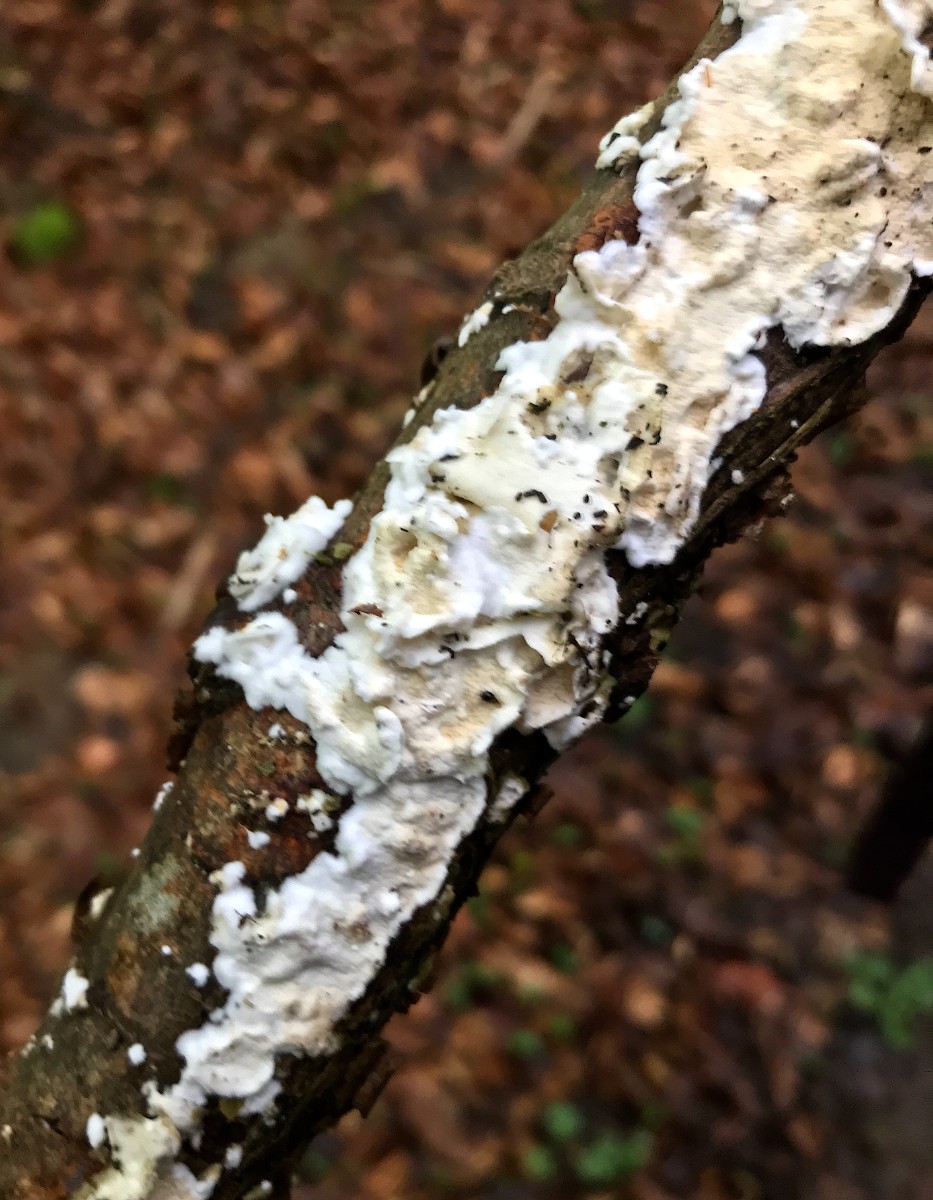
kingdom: Fungi
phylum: Basidiomycota
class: Agaricomycetes
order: Polyporales
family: Irpicaceae
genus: Byssomerulius
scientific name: Byssomerulius corium
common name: læder-åresvamp
